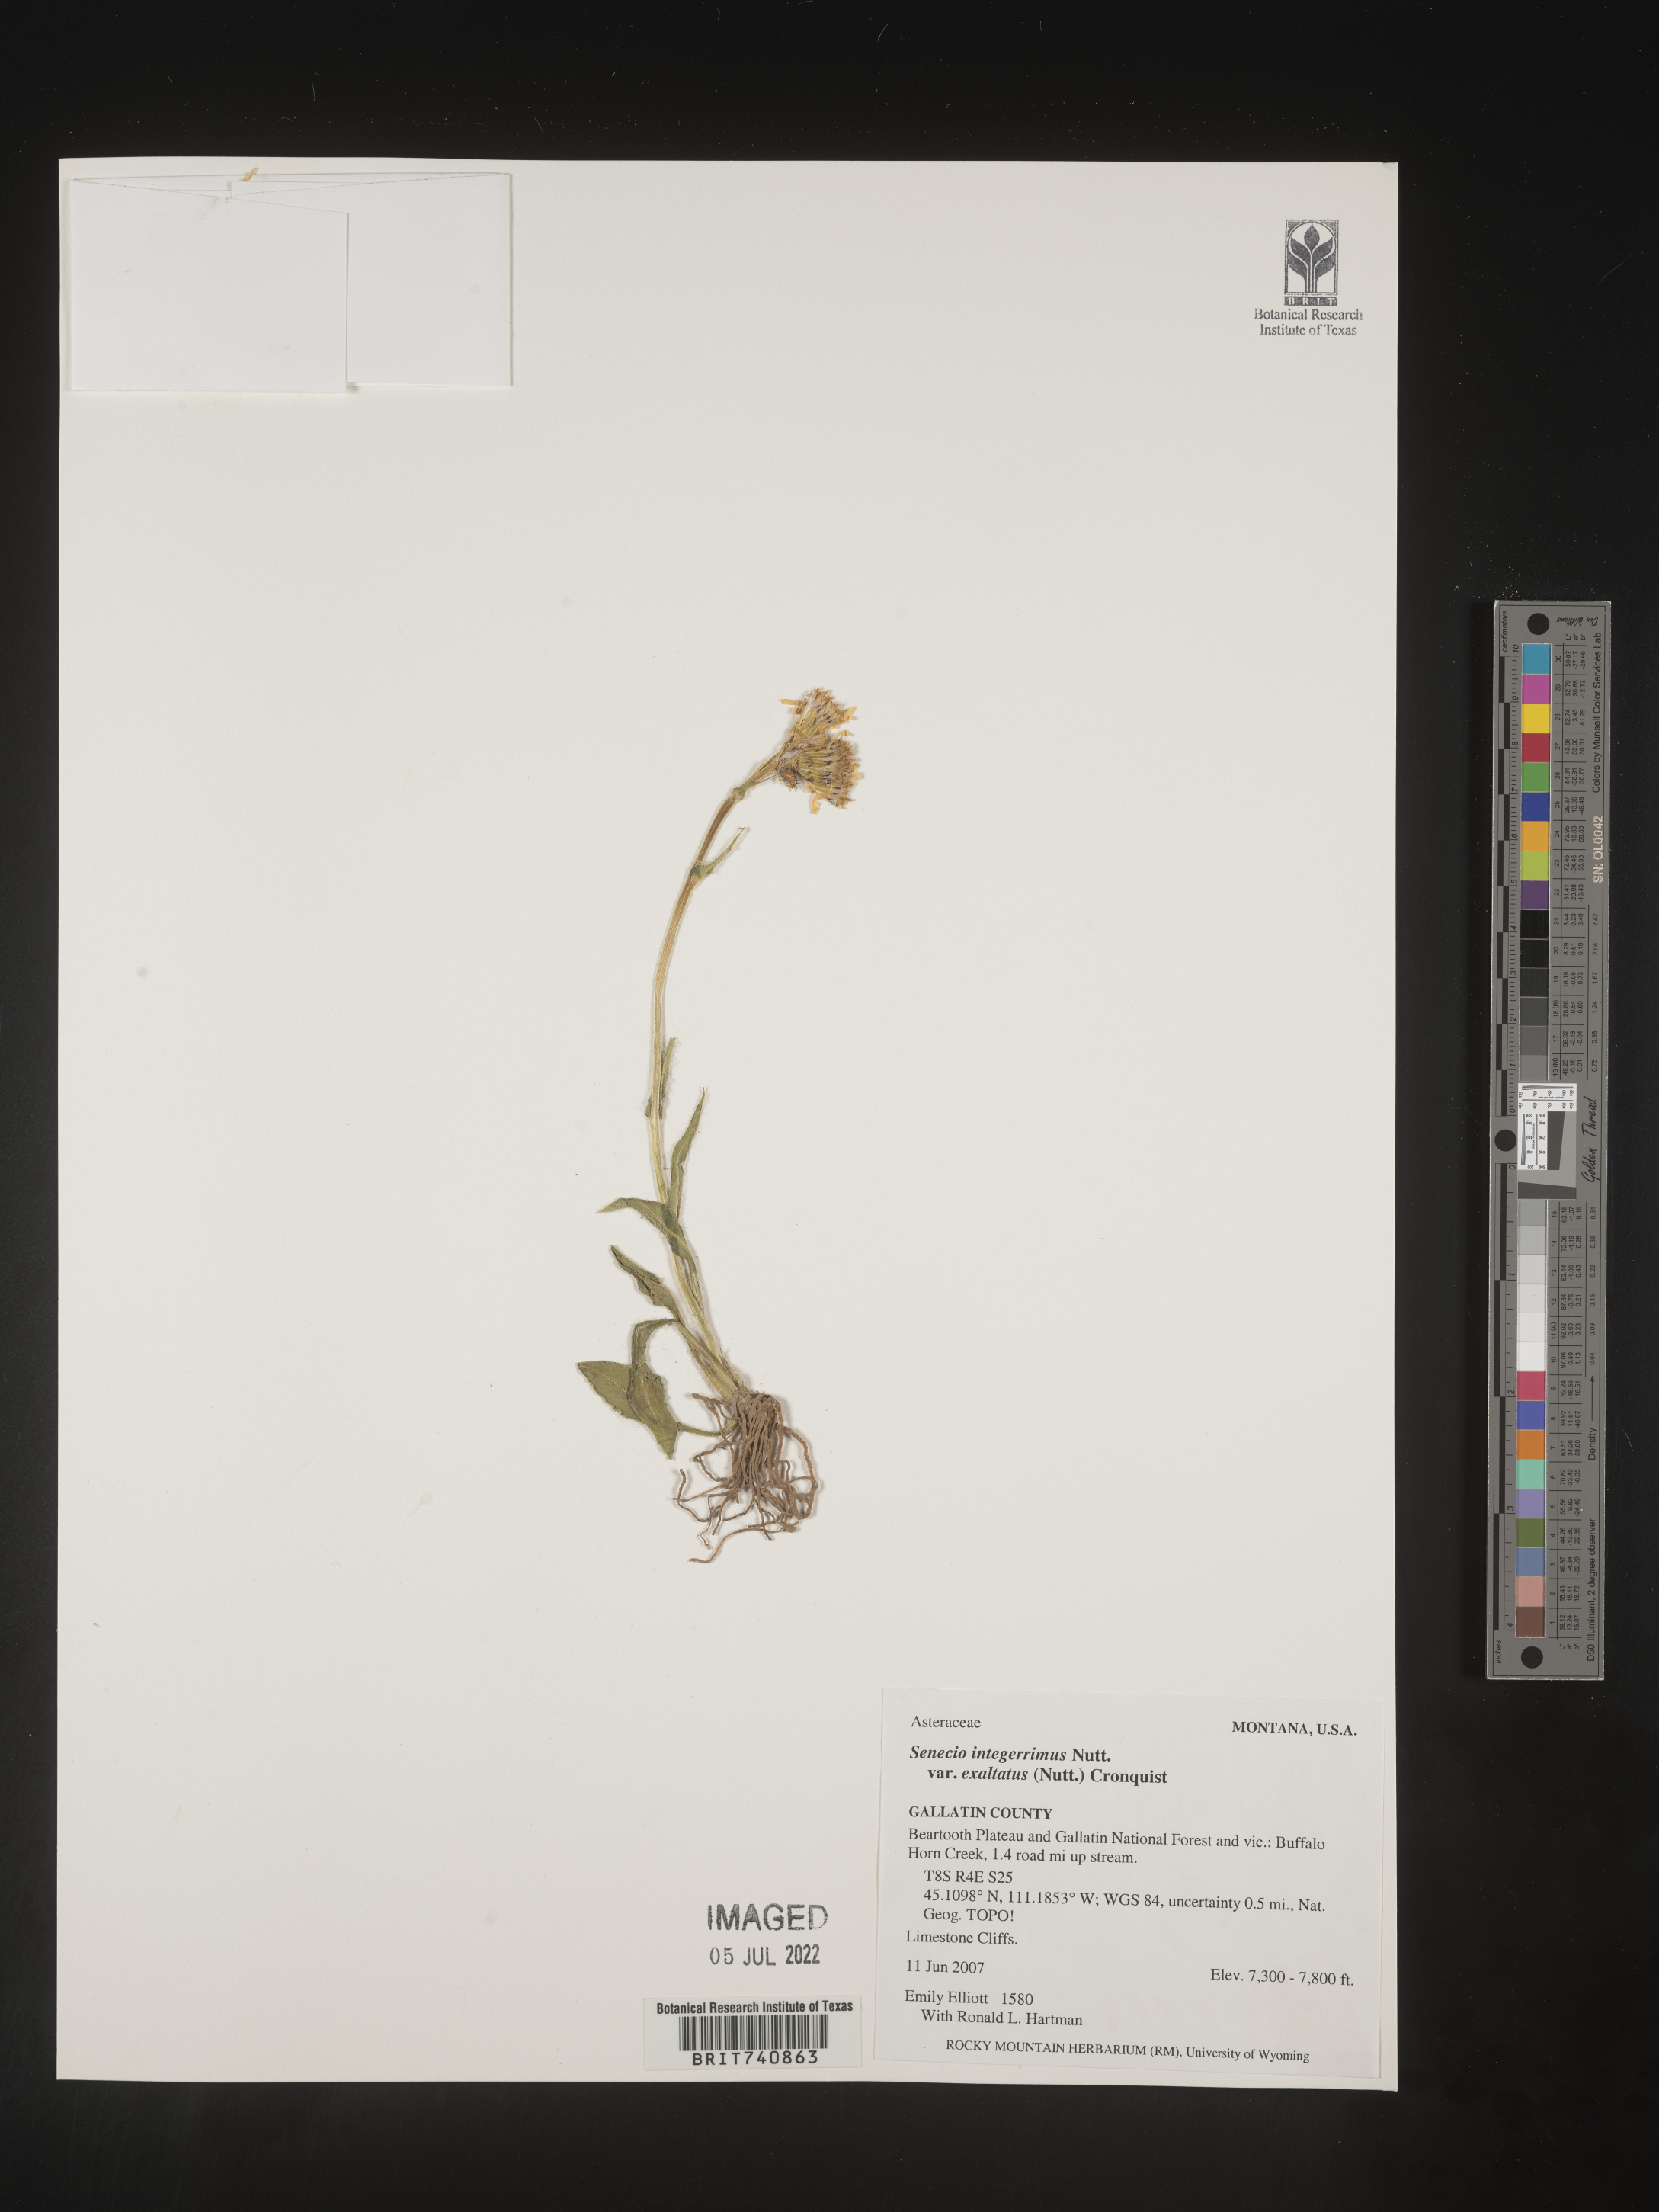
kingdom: Plantae
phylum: Tracheophyta
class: Magnoliopsida
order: Asterales
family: Asteraceae
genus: Senecio
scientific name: Senecio integerrimus
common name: Gaugeplant
